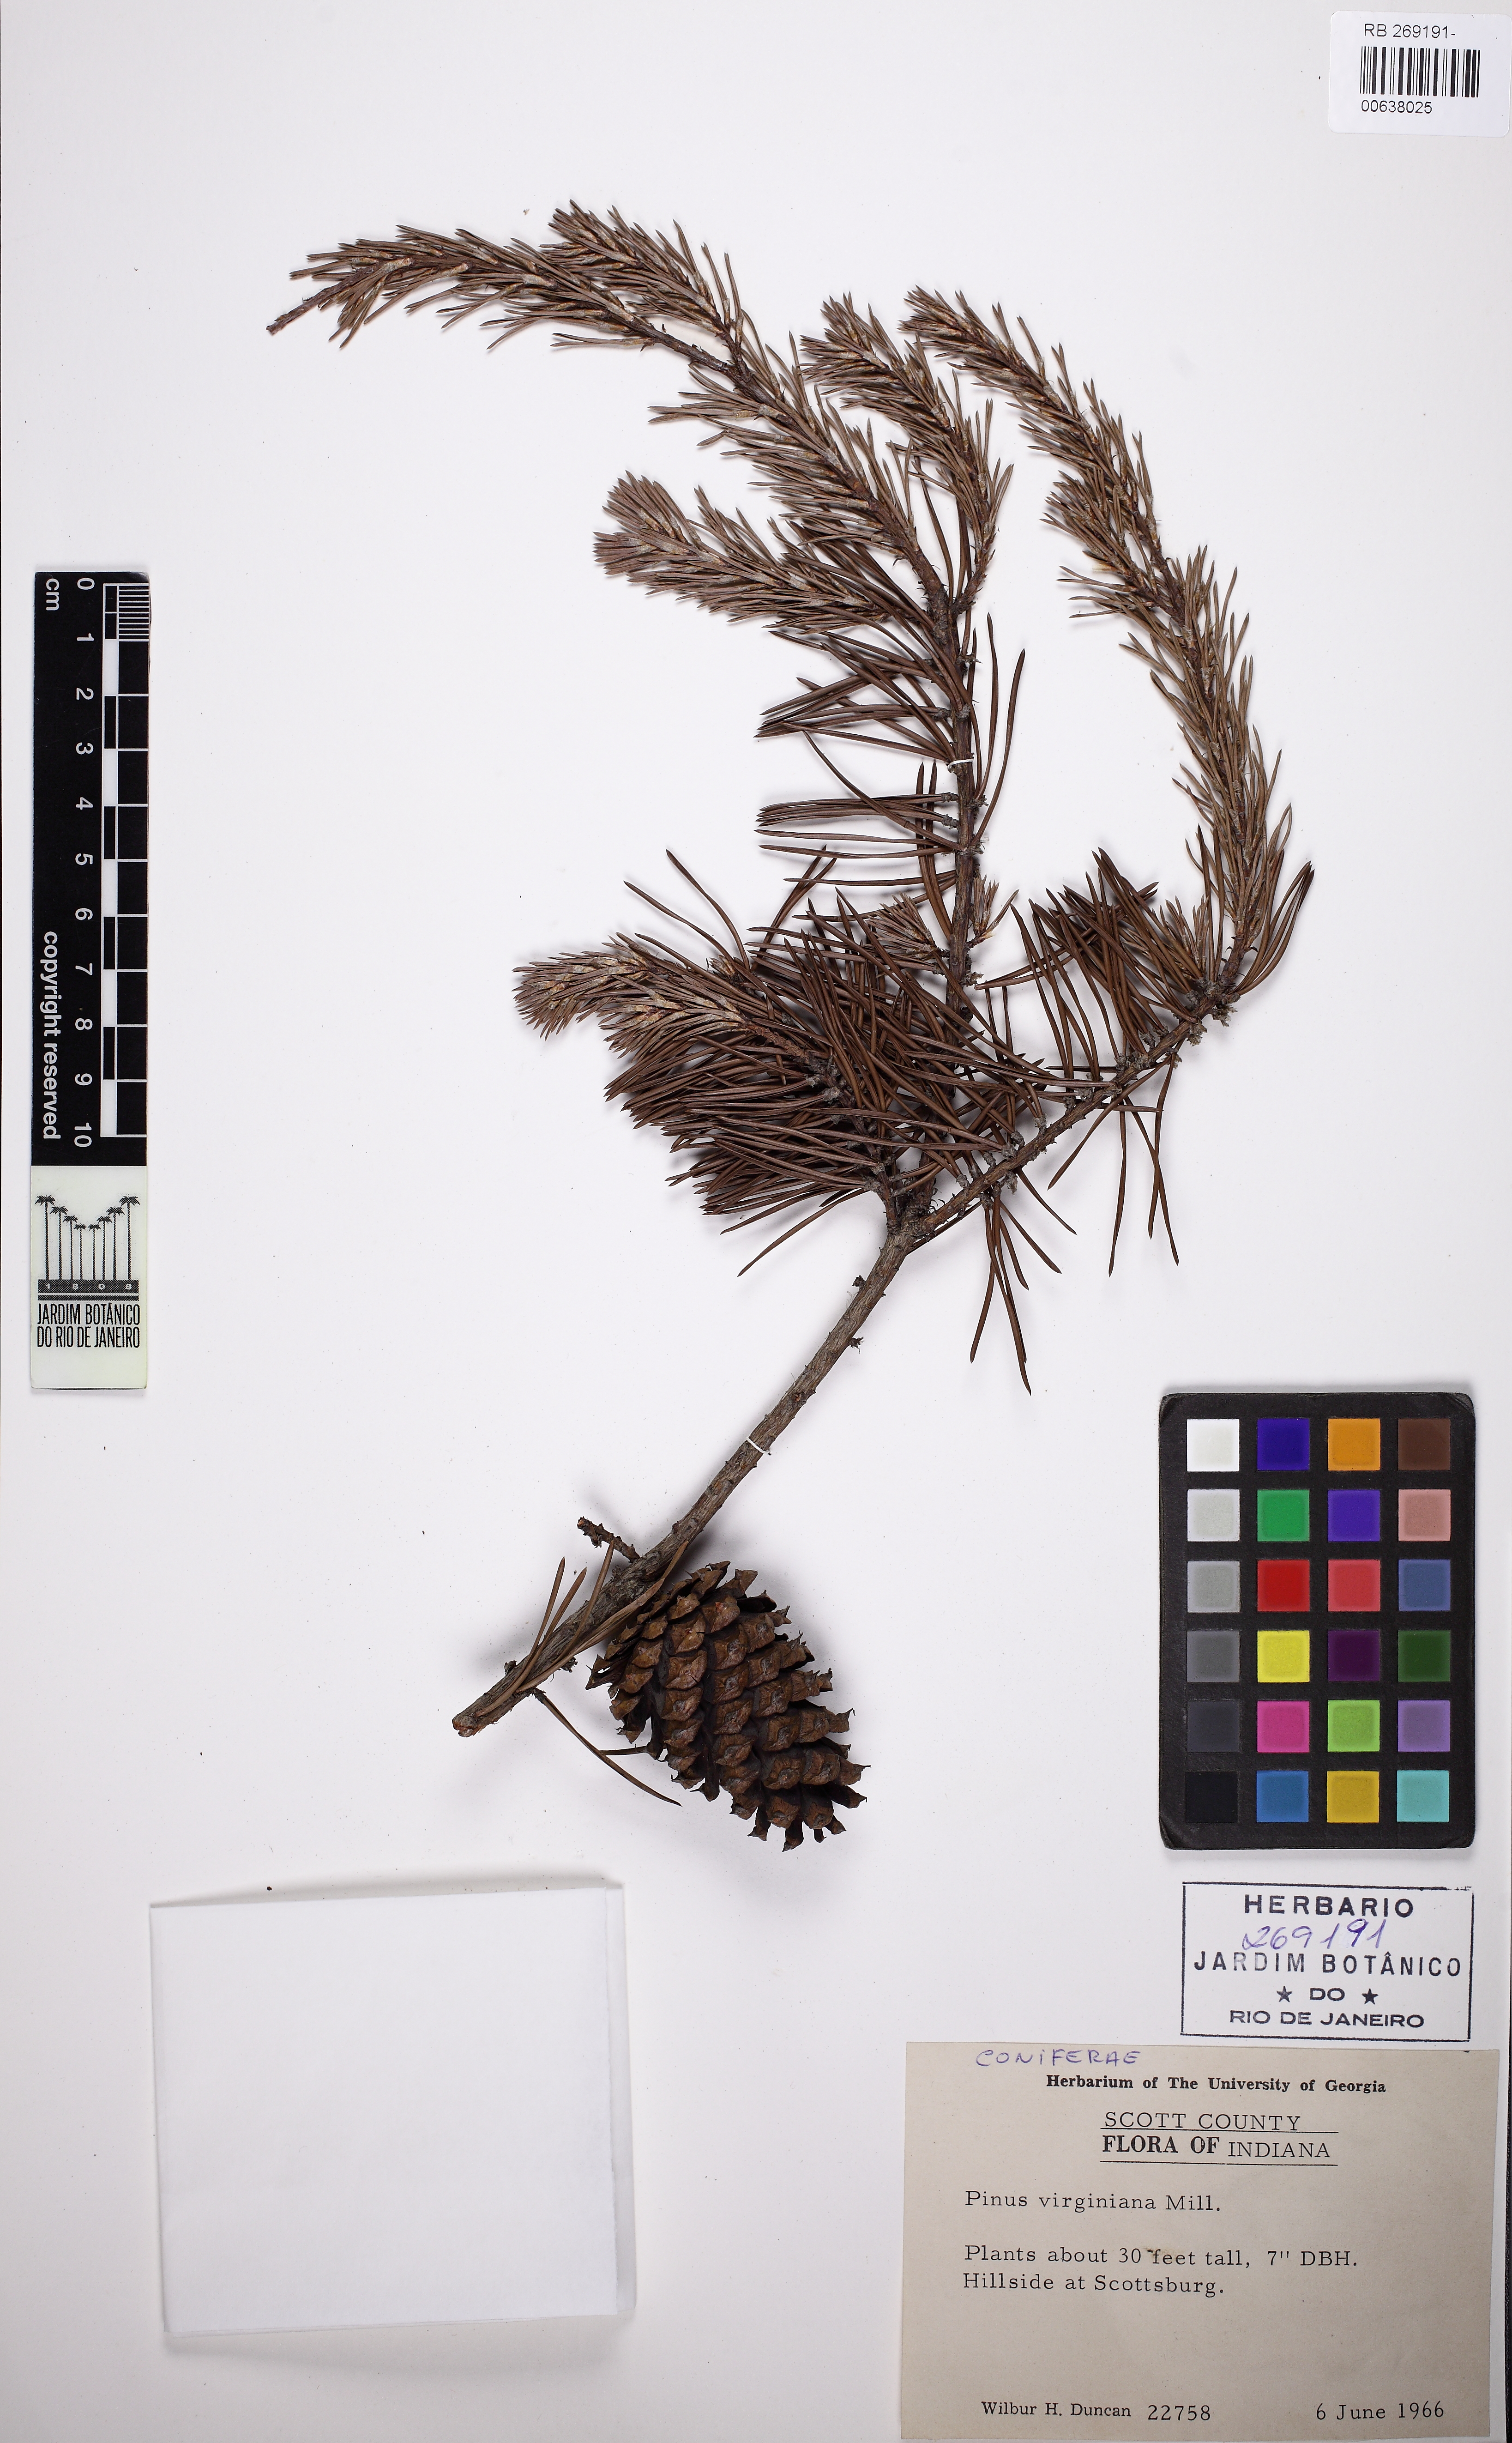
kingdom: Plantae
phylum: Tracheophyta
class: Pinopsida
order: Pinales
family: Pinaceae
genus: Pinus
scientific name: Pinus virginiana
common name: Scrub pine
